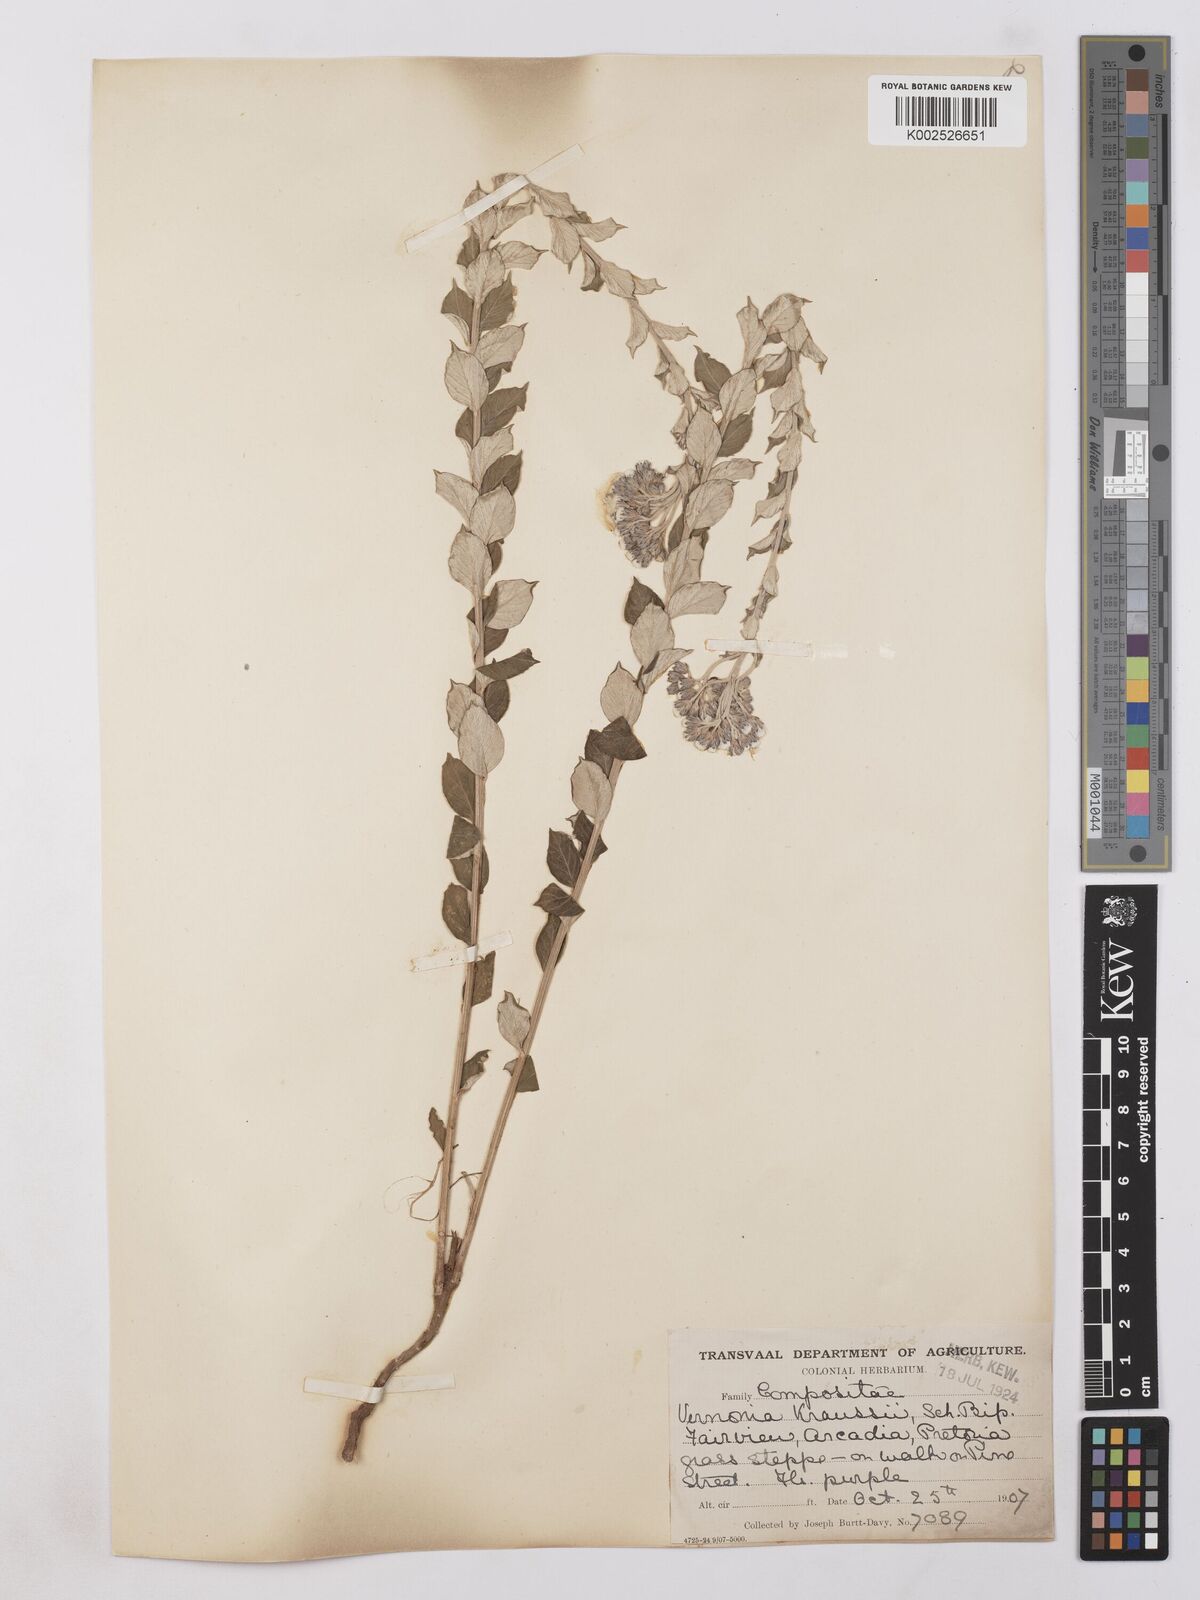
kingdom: Plantae
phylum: Tracheophyta
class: Magnoliopsida
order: Asterales
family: Asteraceae
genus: Hilliardiella
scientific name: Hilliardiella oligocephala
